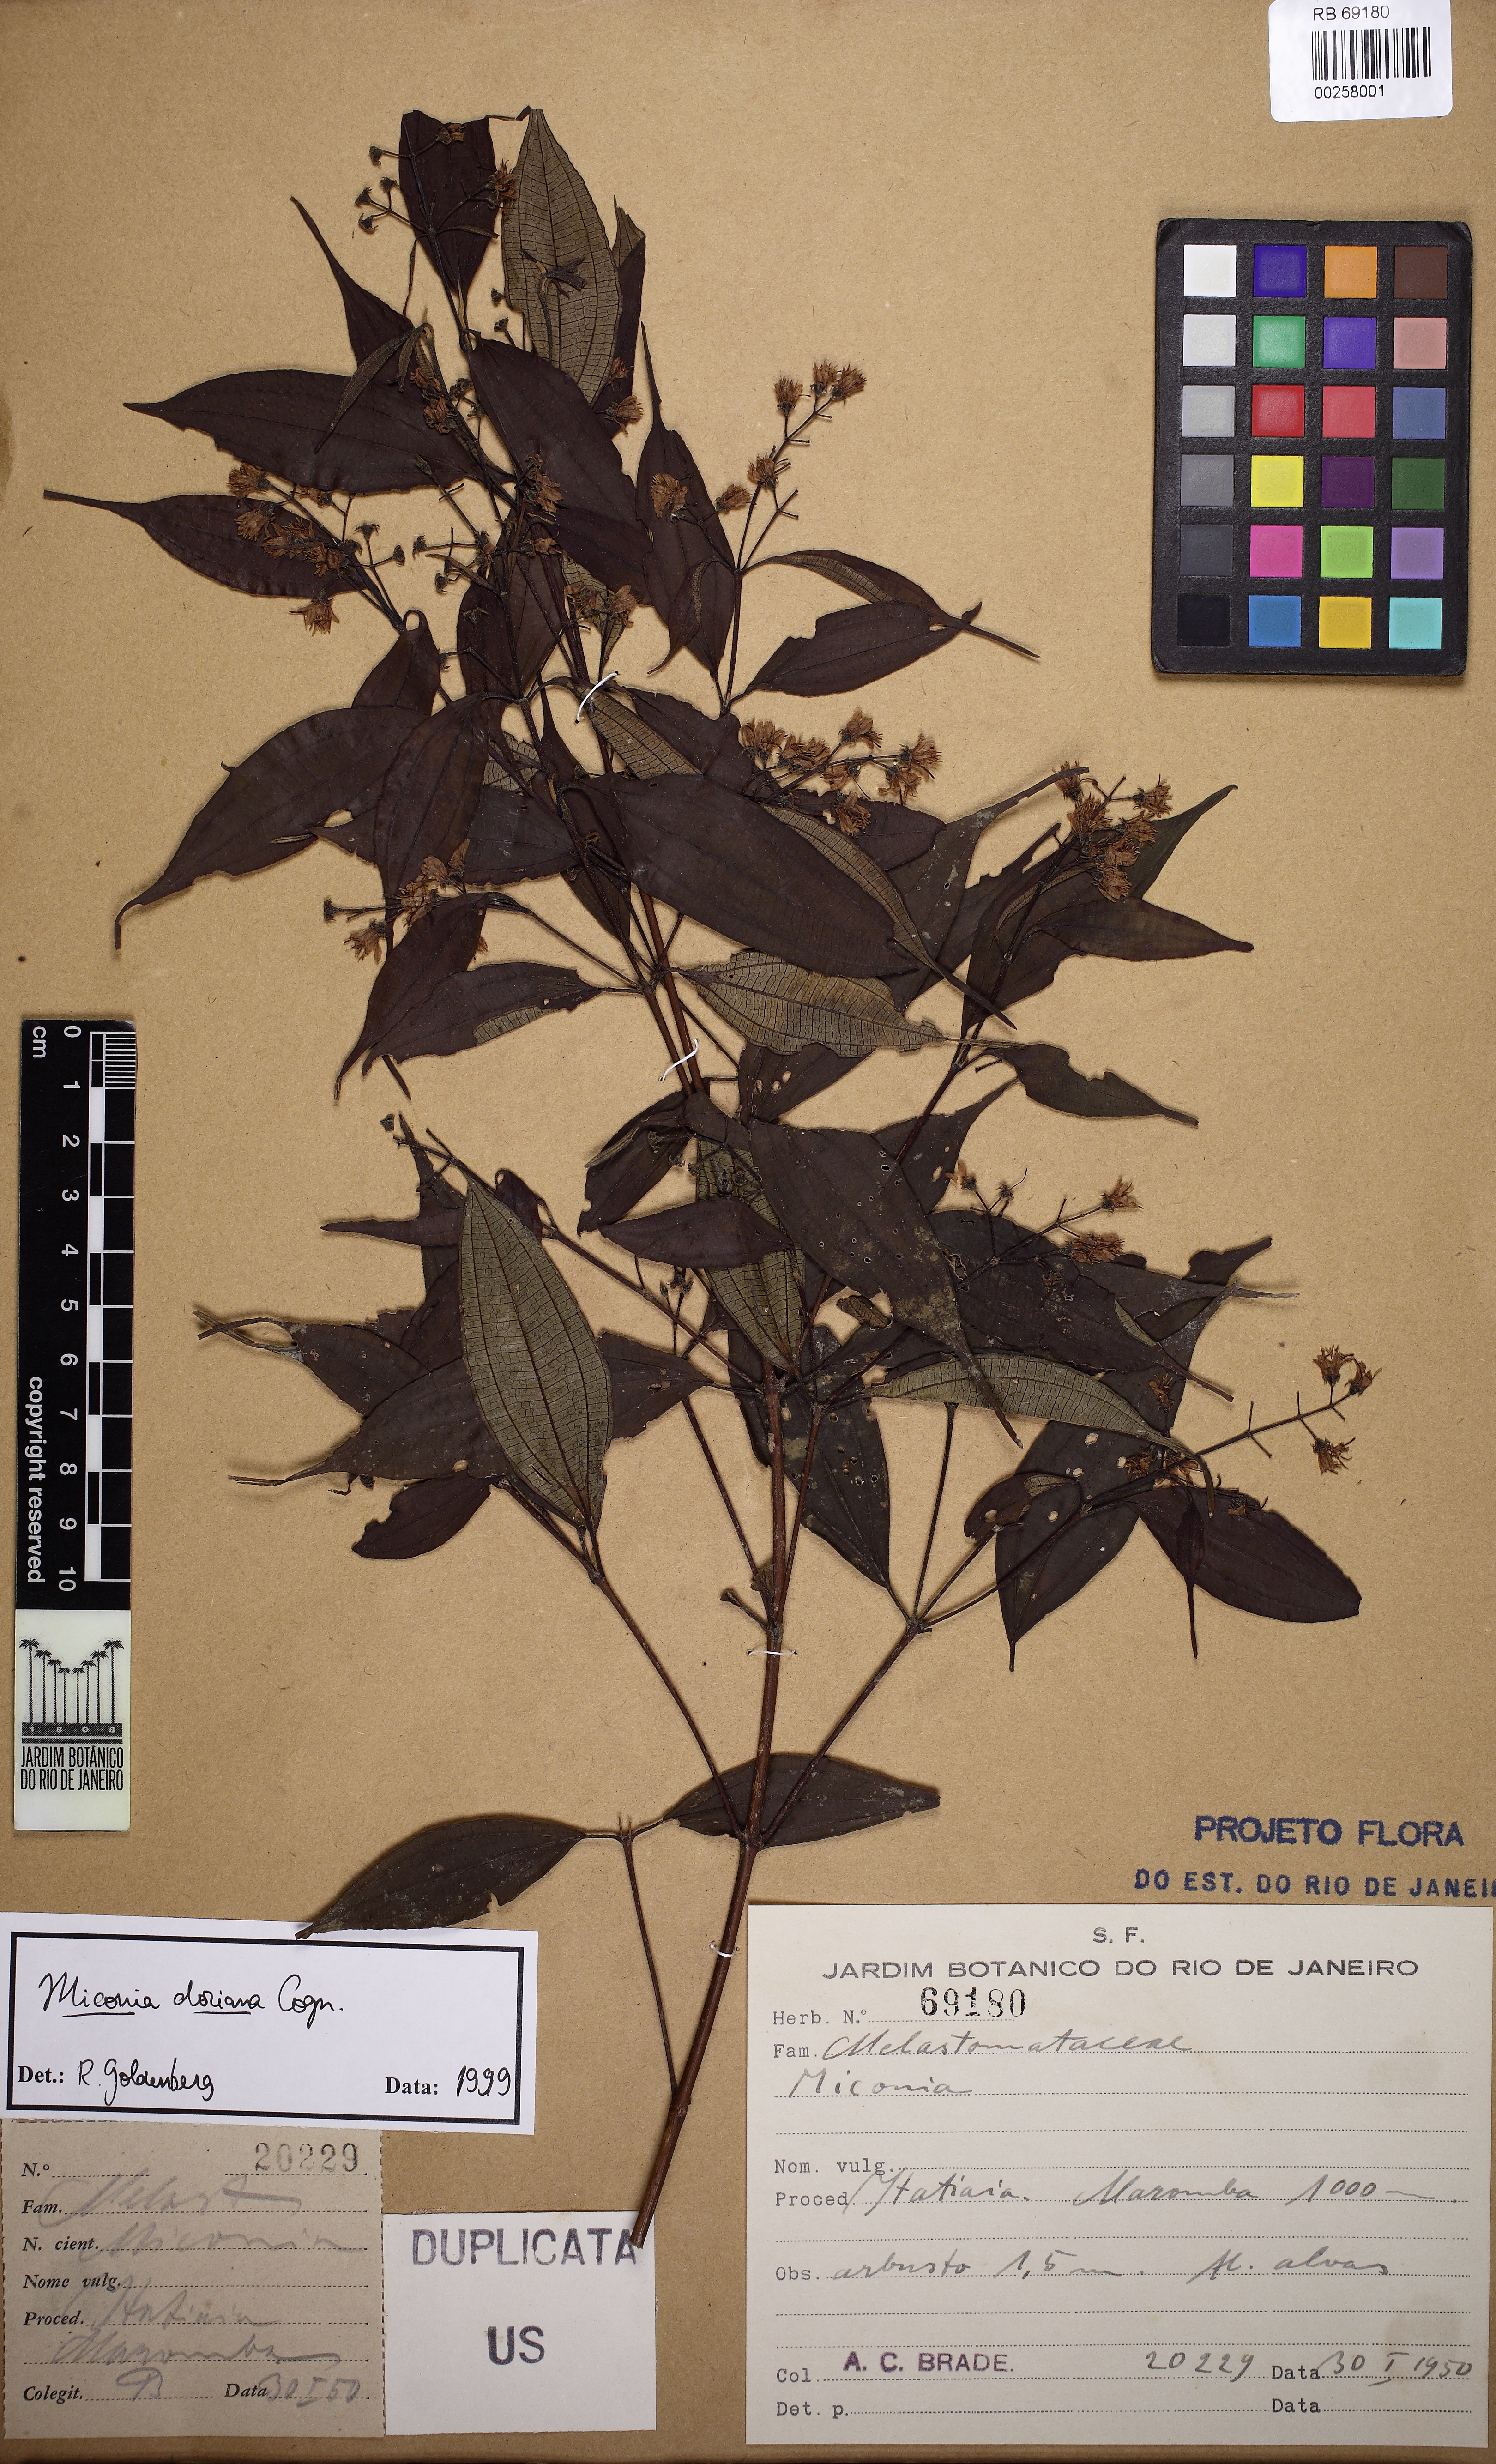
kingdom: Plantae
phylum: Tracheophyta
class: Magnoliopsida
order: Myrtales
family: Melastomataceae
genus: Miconia
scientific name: Miconia doriana
